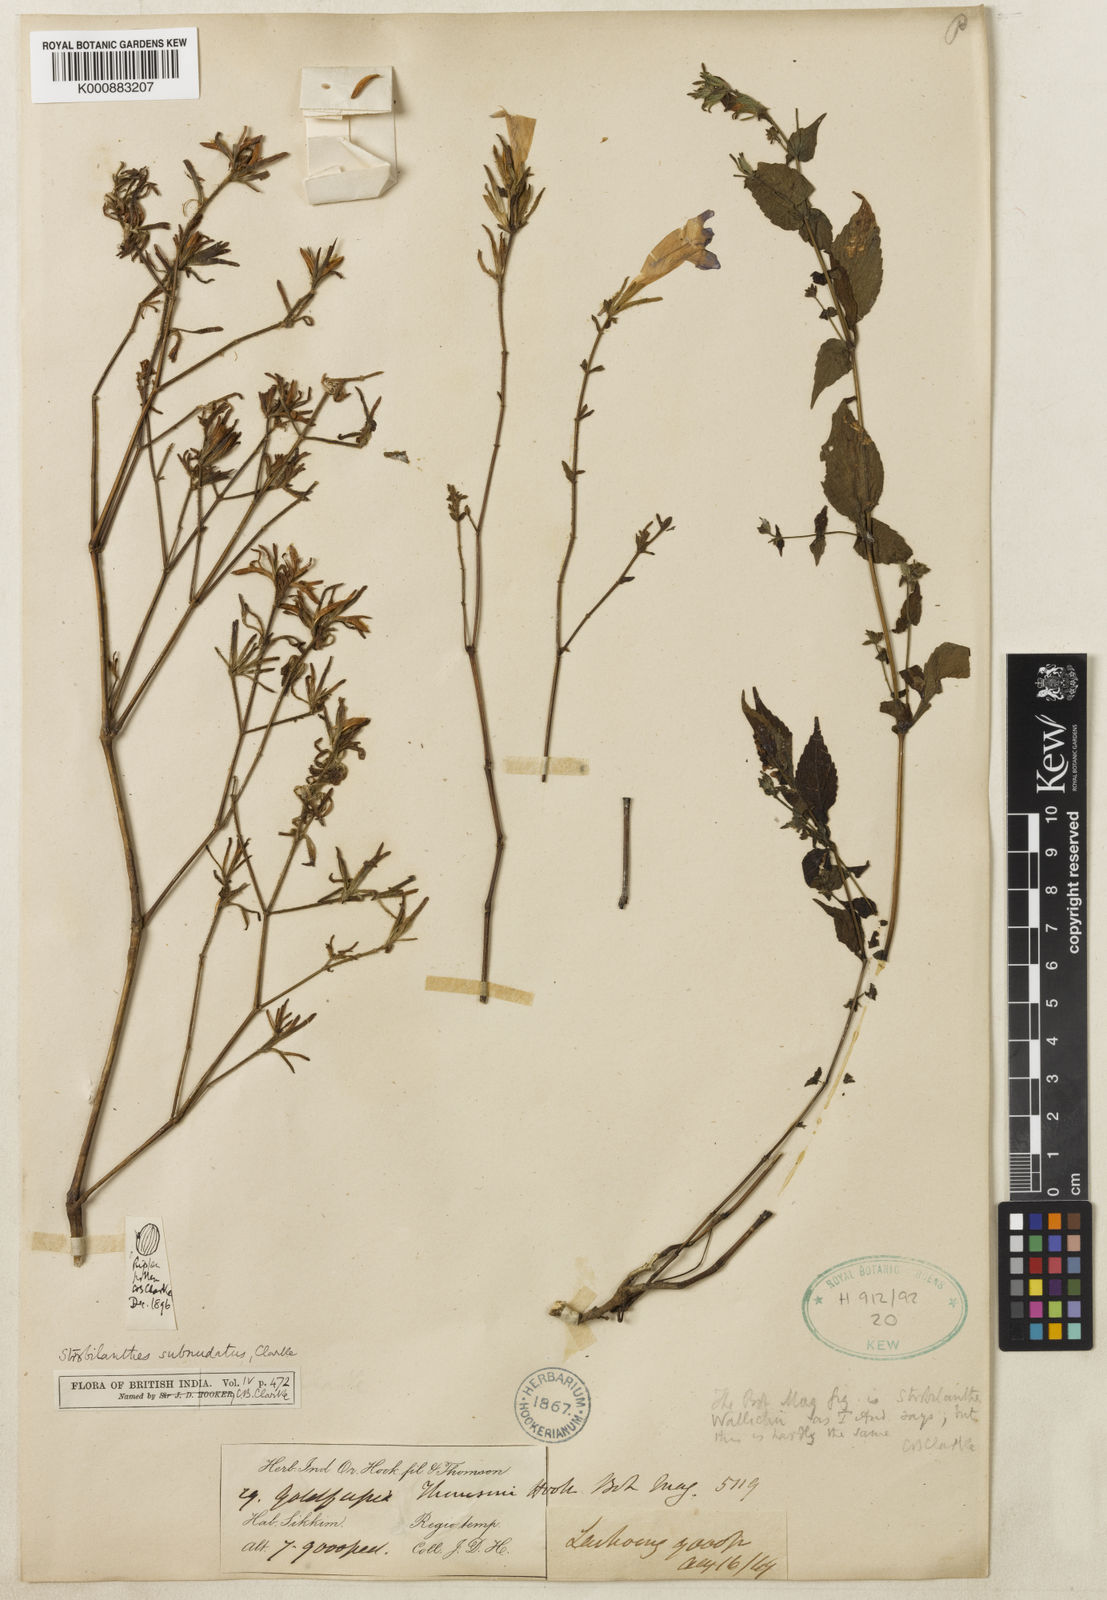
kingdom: Plantae
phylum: Tracheophyta
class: Magnoliopsida
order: Lamiales
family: Acanthaceae
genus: Strobilanthes
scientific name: Strobilanthes subnudata
